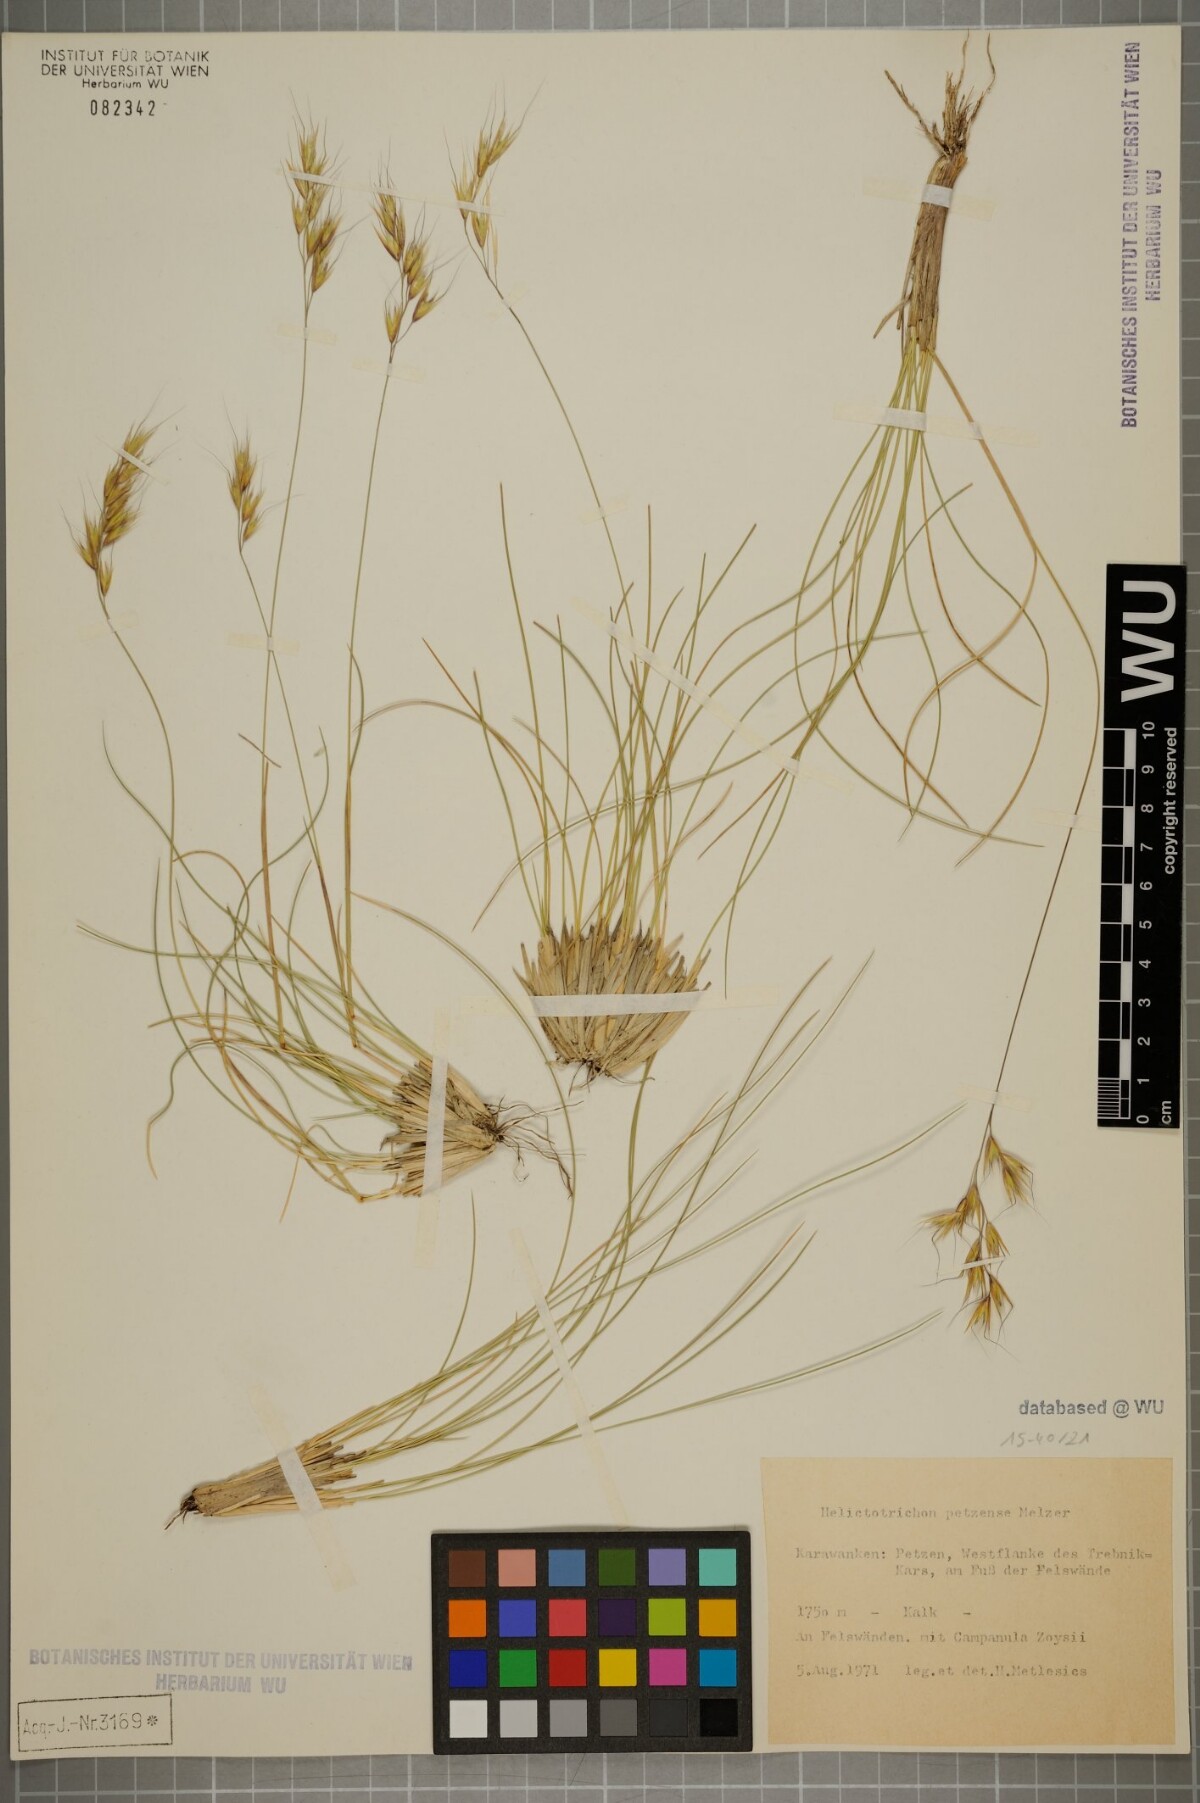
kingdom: Plantae
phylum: Tracheophyta
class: Liliopsida
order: Poales
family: Poaceae
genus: Helictotrichon
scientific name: Helictotrichon petzense
